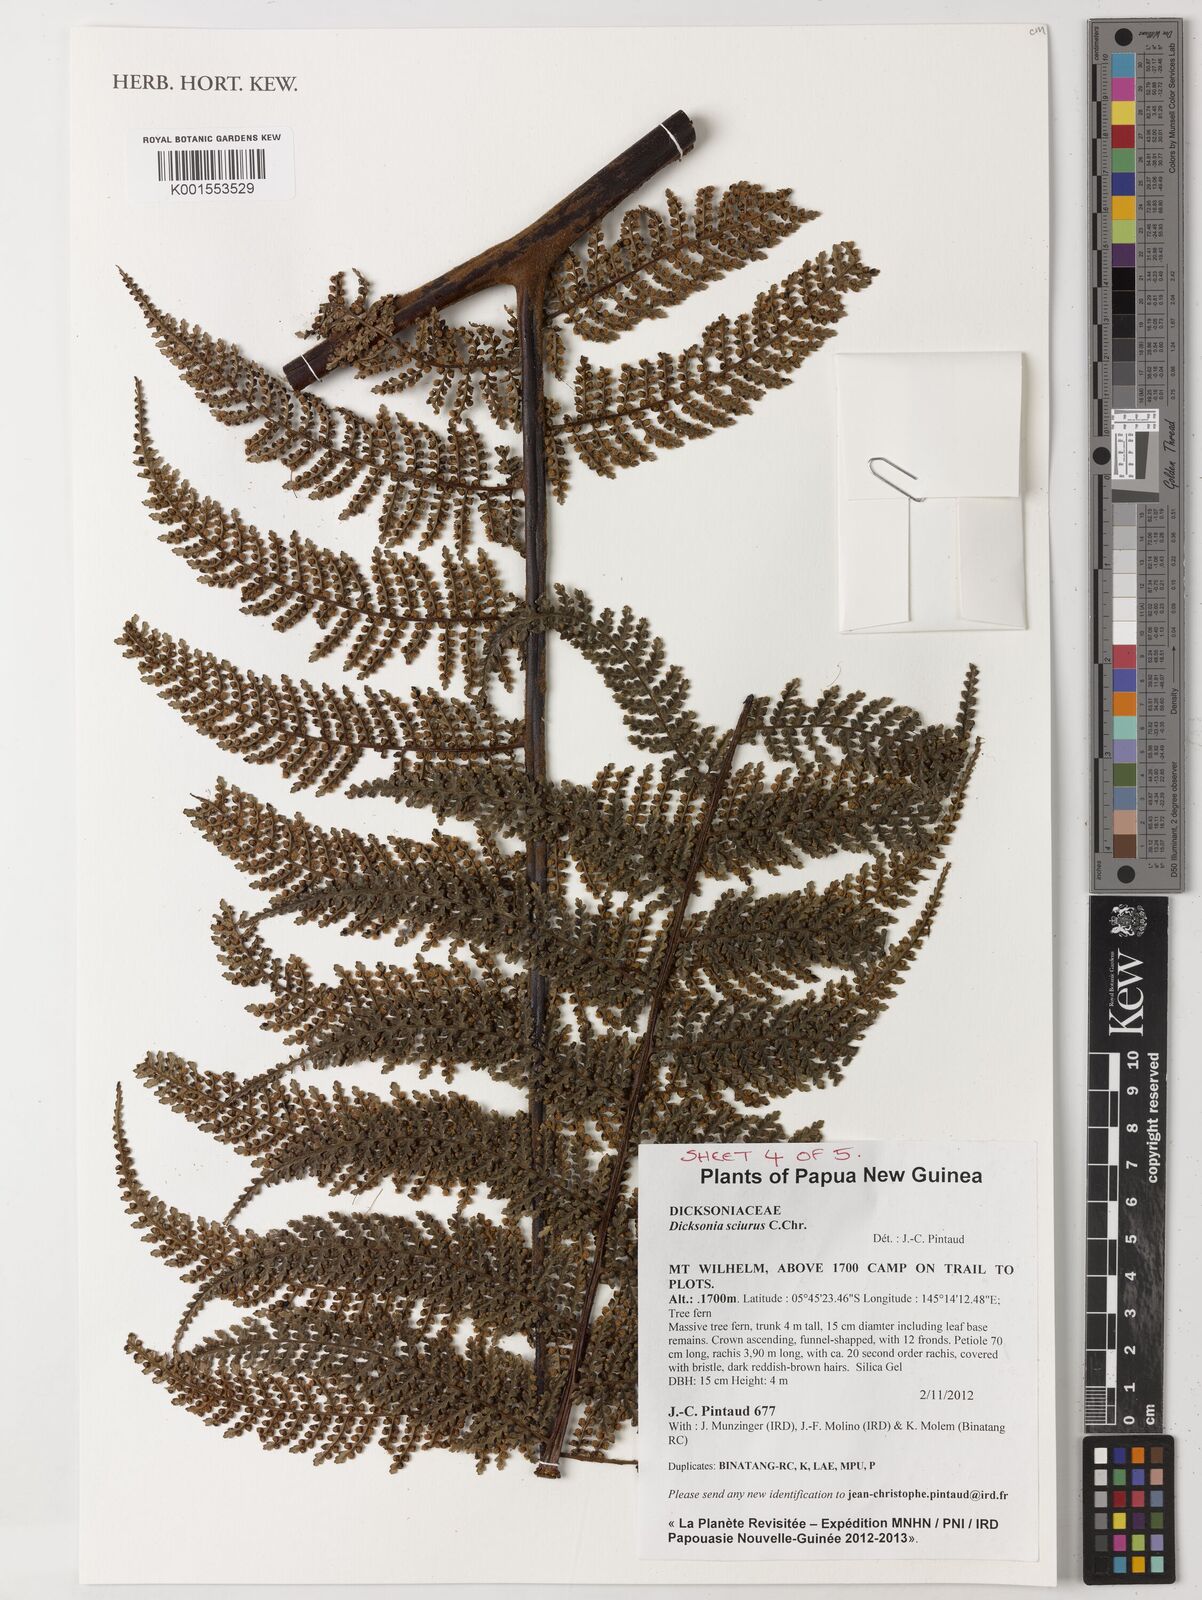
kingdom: Plantae
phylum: Tracheophyta
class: Polypodiopsida
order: Cyatheales
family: Dicksoniaceae
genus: Dicksonia
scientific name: Dicksonia sciurus
